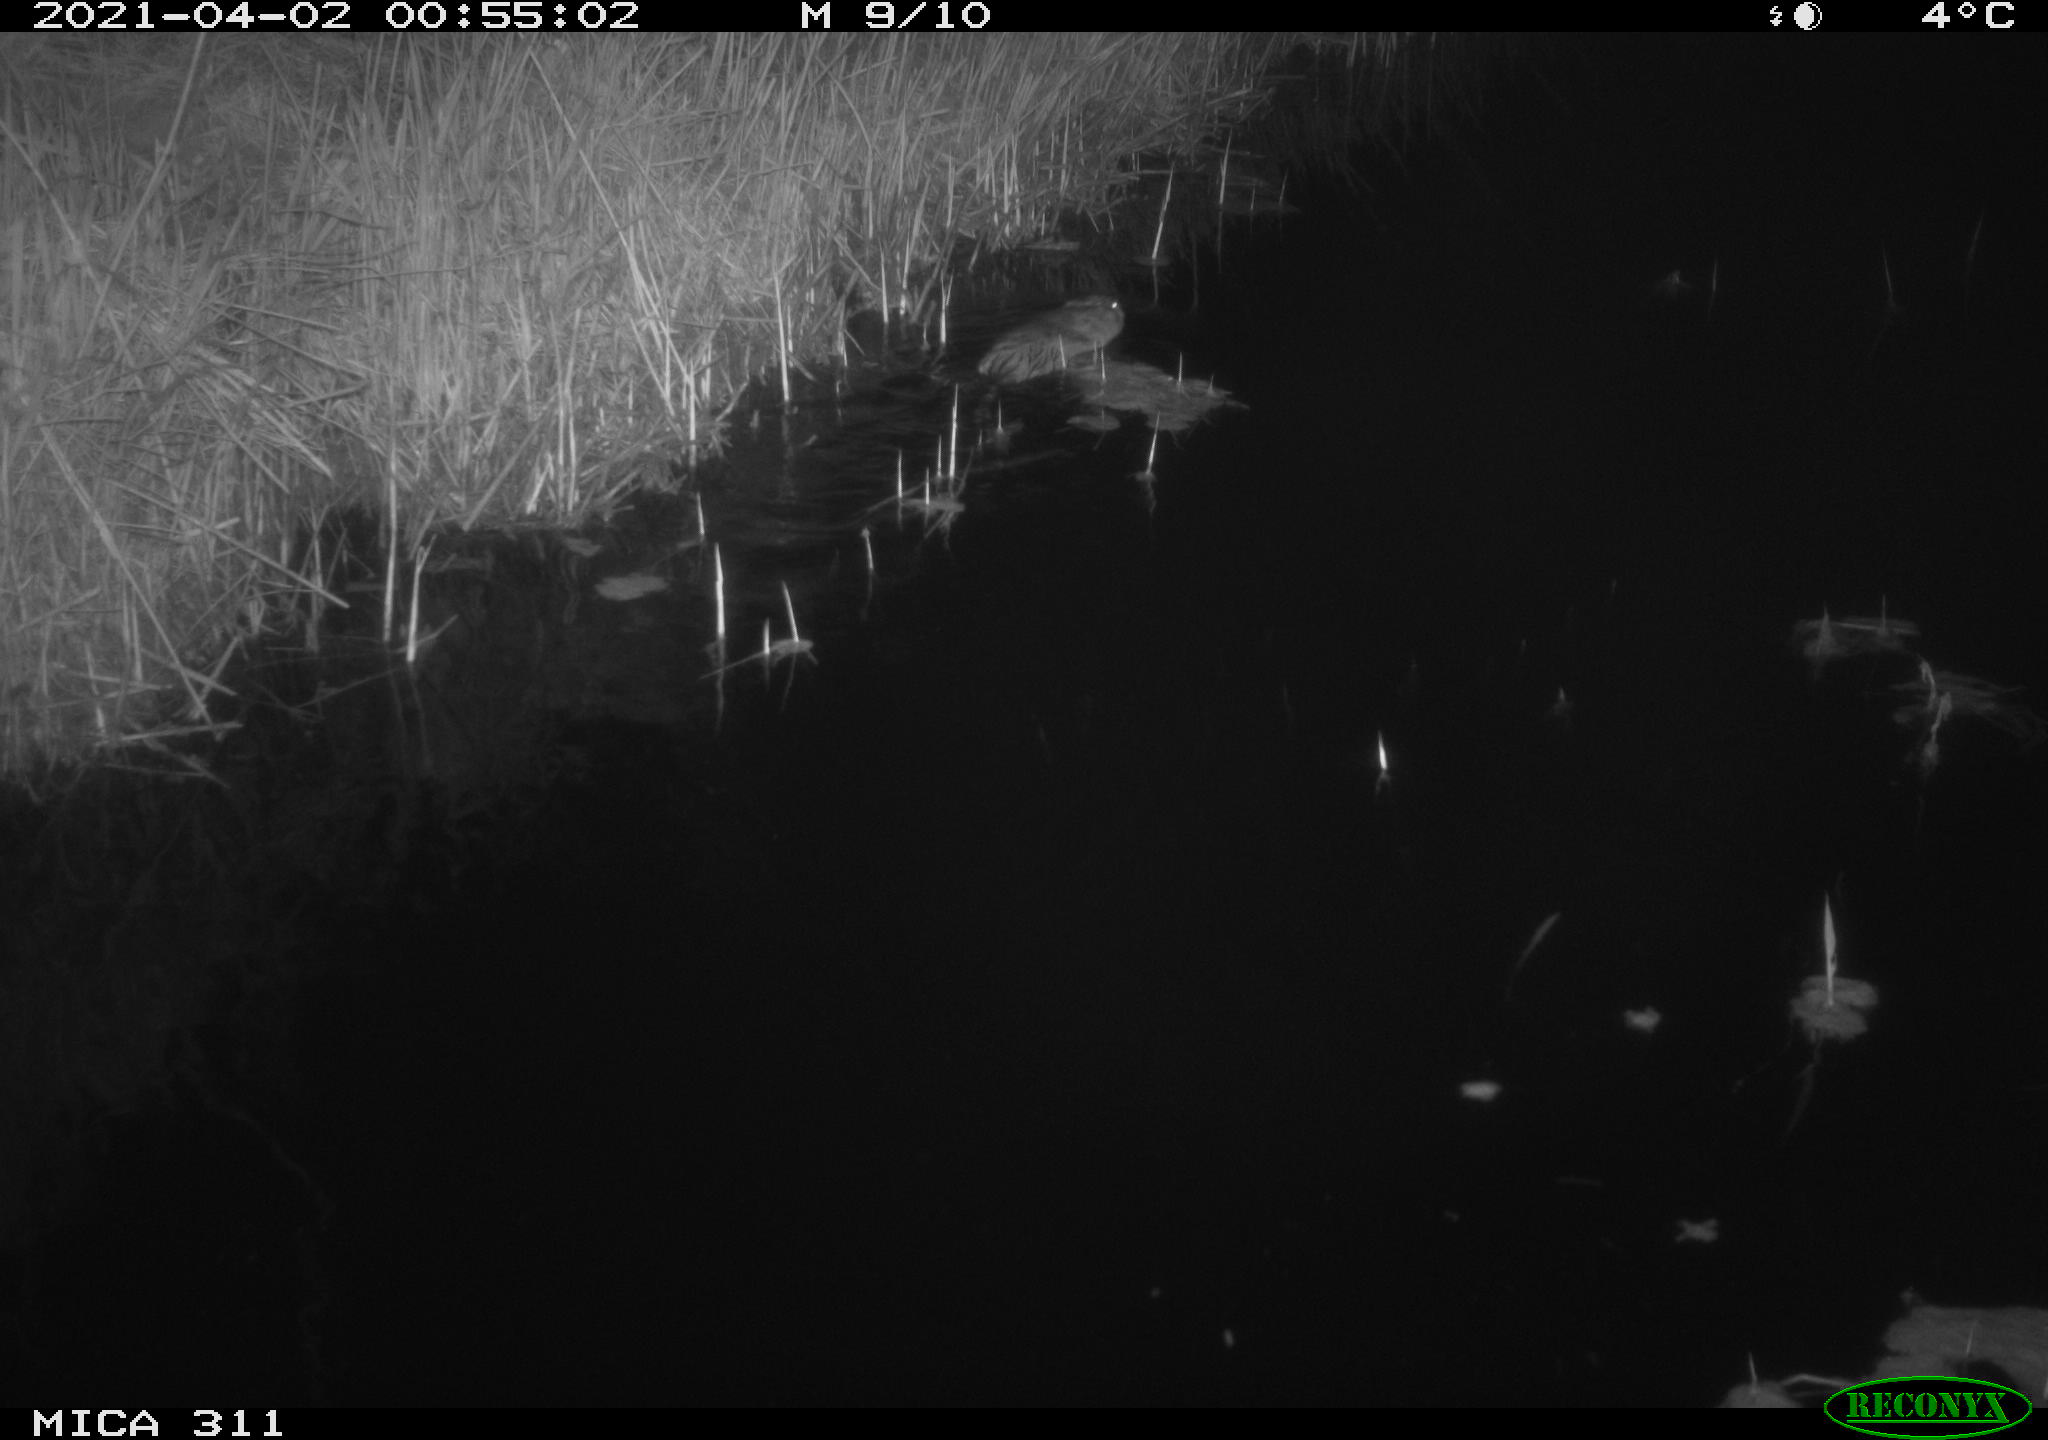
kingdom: Animalia
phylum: Chordata
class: Mammalia
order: Rodentia
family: Cricetidae
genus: Ondatra
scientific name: Ondatra zibethicus
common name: Muskrat
